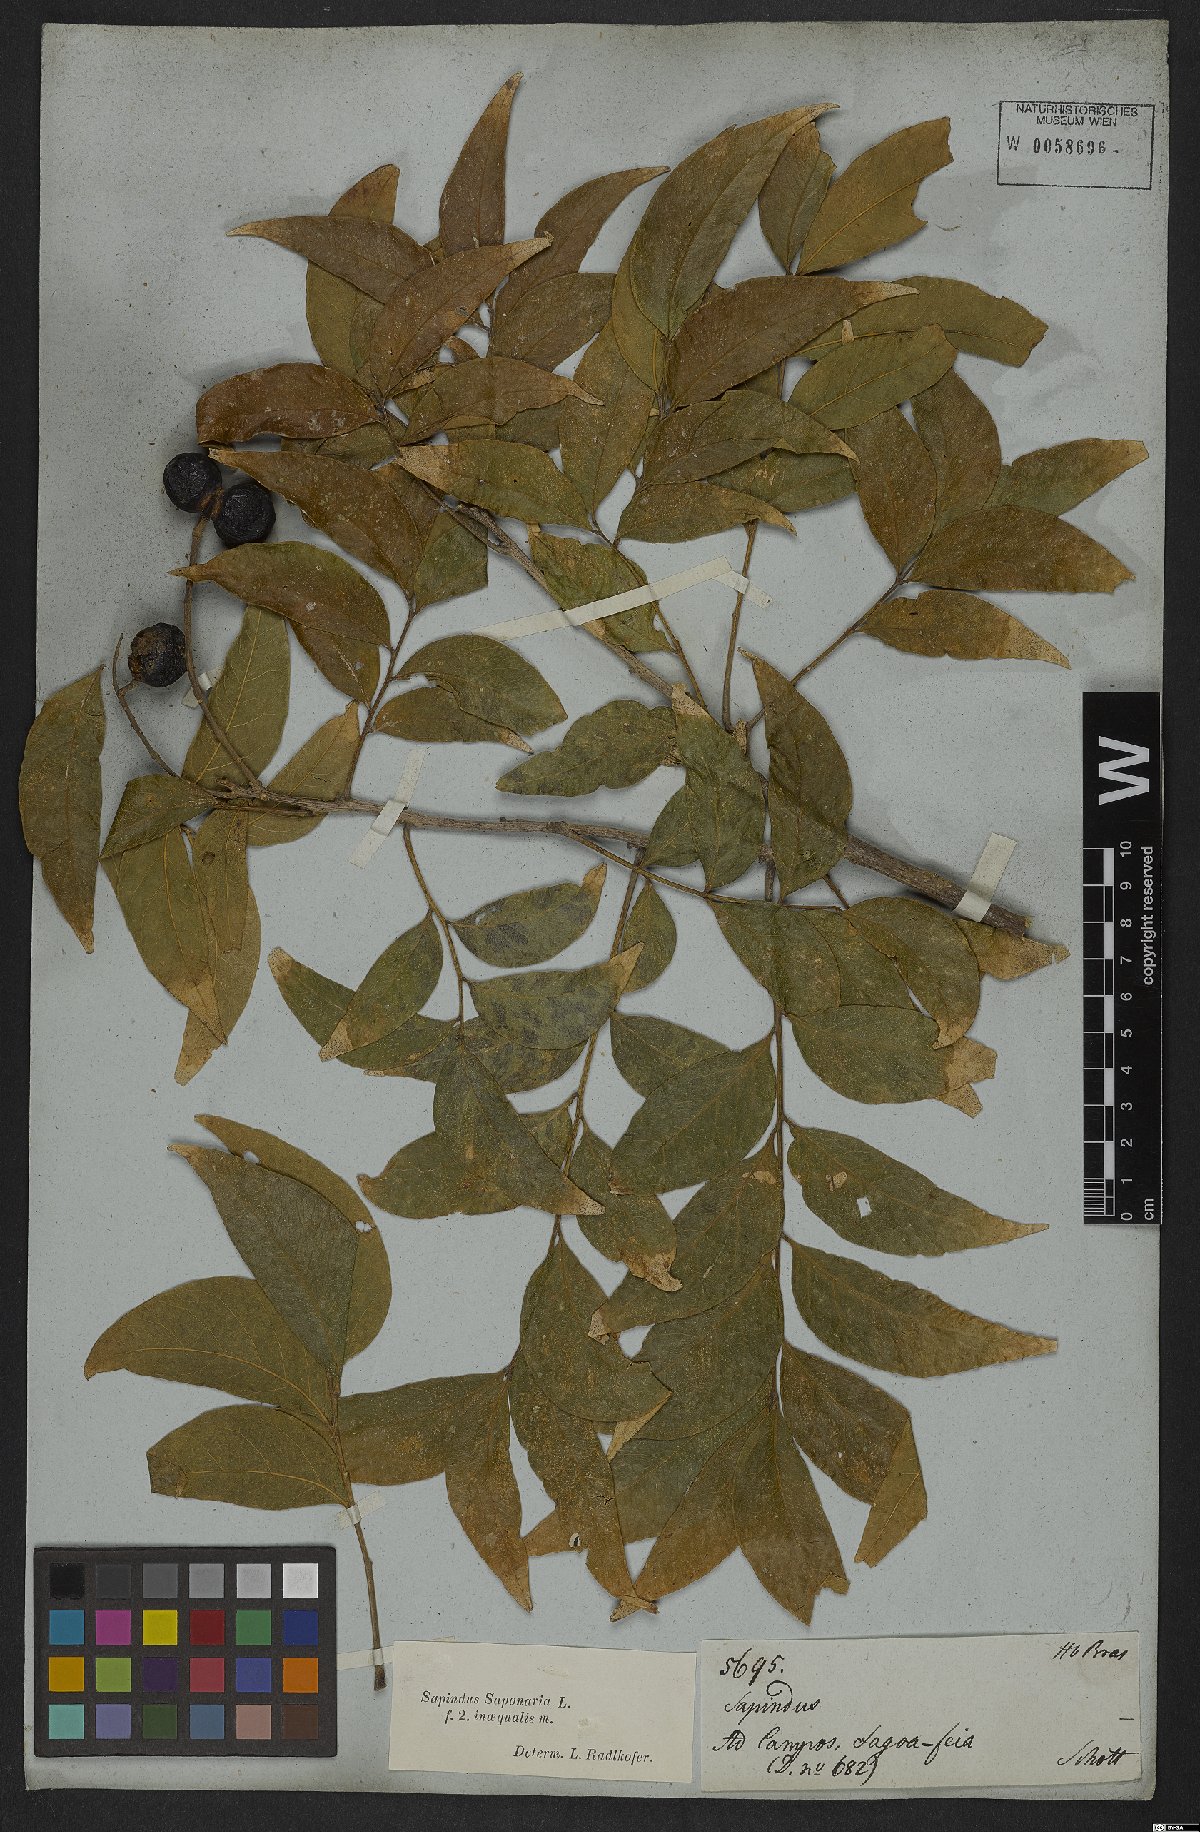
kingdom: Plantae
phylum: Tracheophyta
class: Magnoliopsida
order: Sapindales
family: Sapindaceae
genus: Sapindus
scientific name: Sapindus saponaria
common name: Wingleaf soapberry
